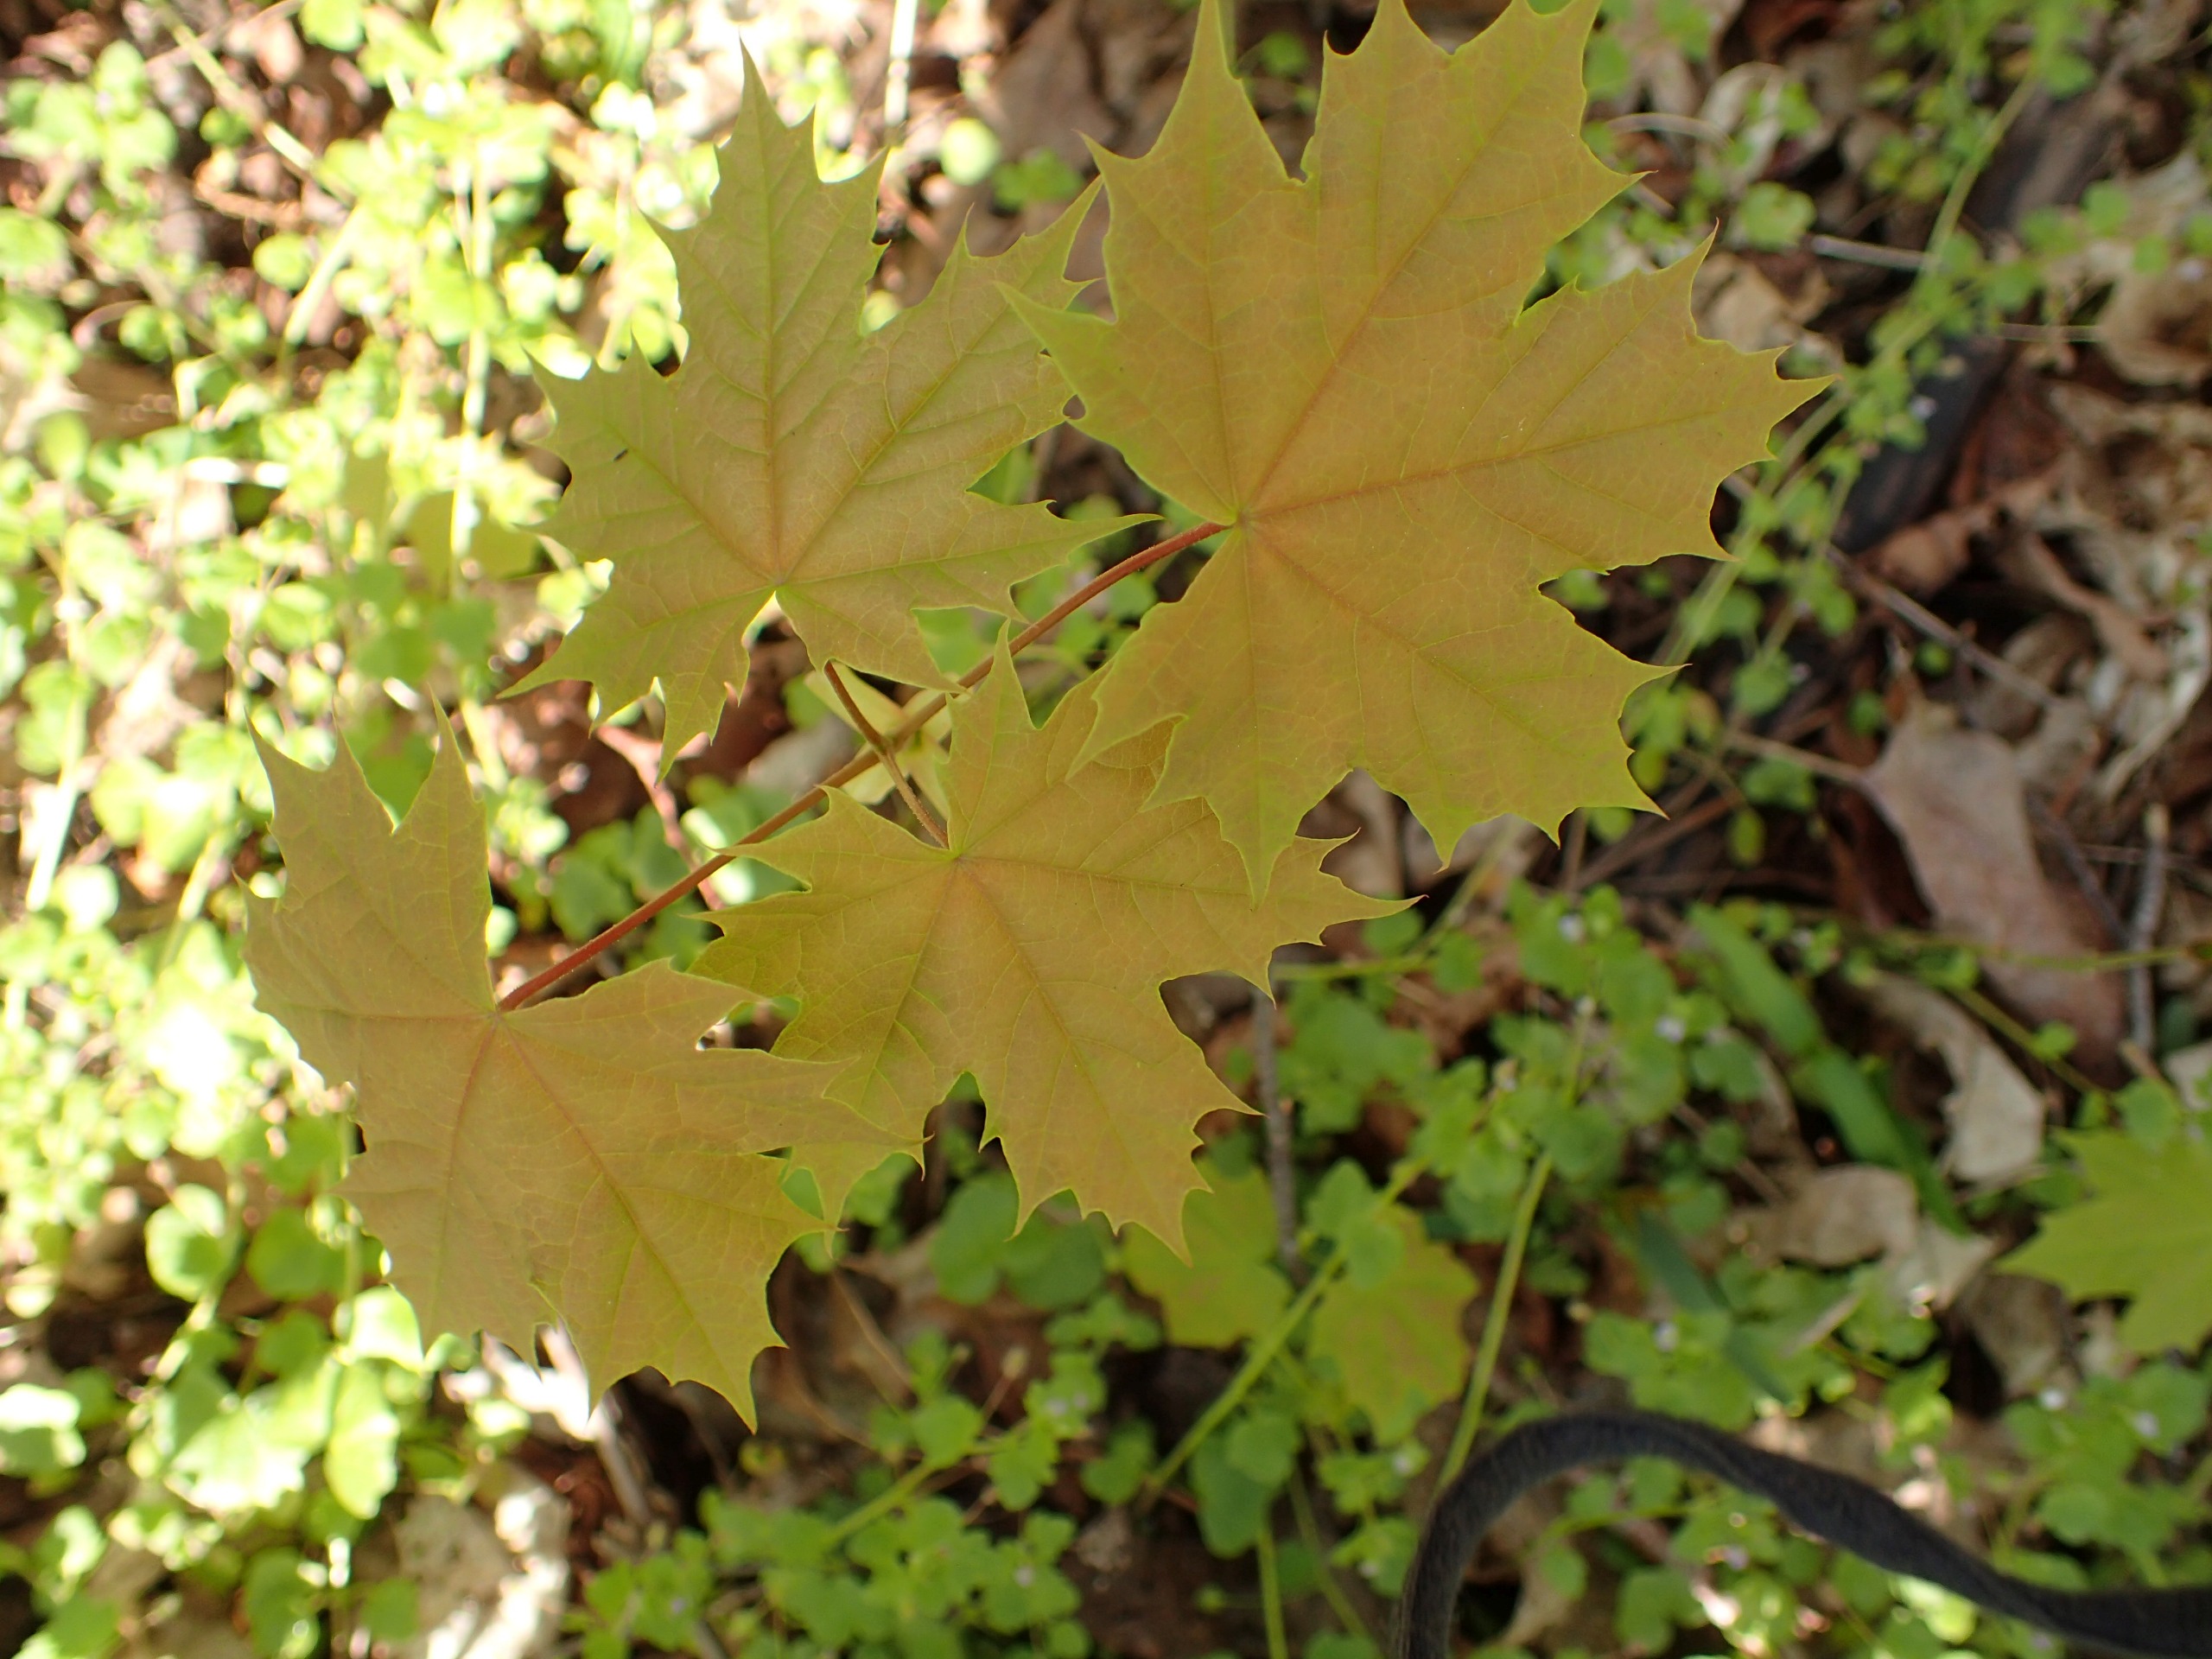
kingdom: Plantae
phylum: Tracheophyta
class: Magnoliopsida
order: Sapindales
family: Sapindaceae
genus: Acer
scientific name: Acer platanoides
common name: Spids-løn
